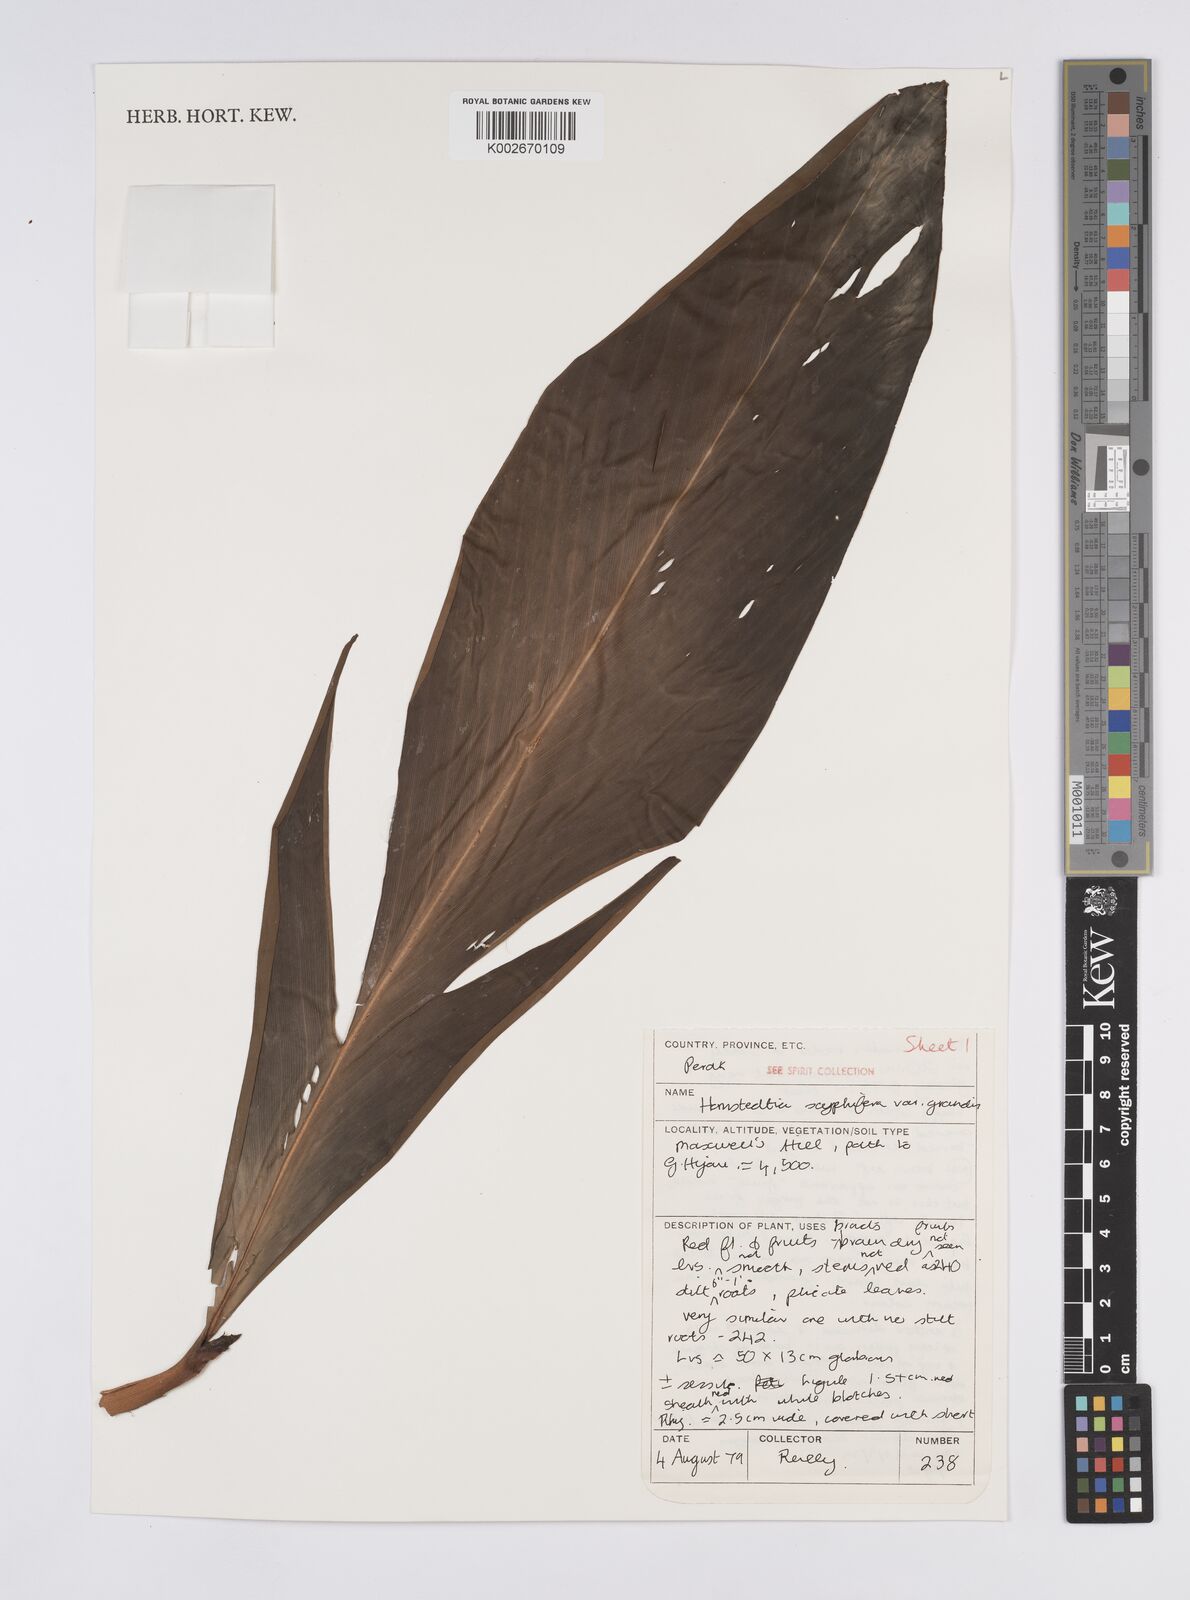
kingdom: Plantae
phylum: Tracheophyta
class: Liliopsida
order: Zingiberales
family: Zingiberaceae
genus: Hornstedtia
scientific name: Hornstedtia scyphifera
